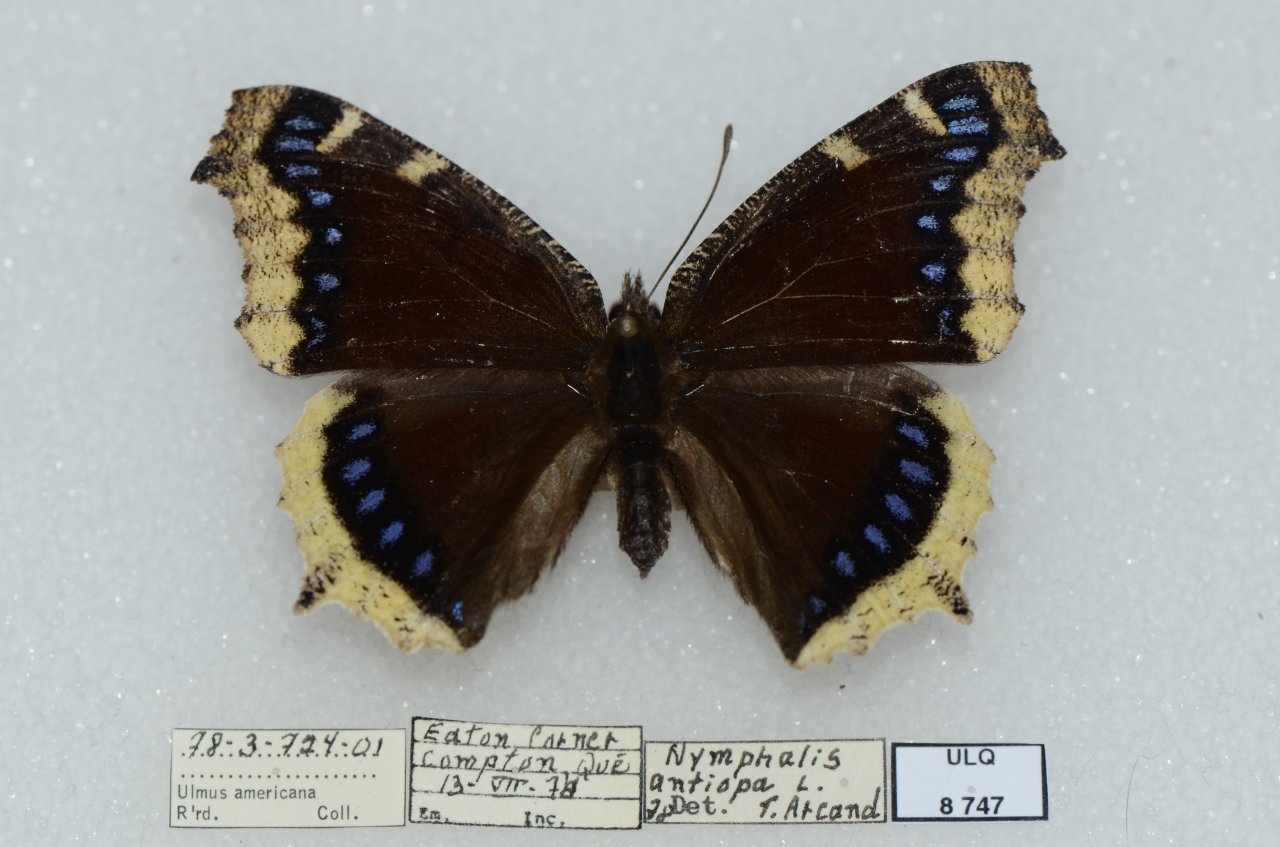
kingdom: Animalia
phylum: Arthropoda
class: Insecta
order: Lepidoptera
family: Nymphalidae
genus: Nymphalis
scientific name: Nymphalis antiopa
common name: Mourning Cloak
